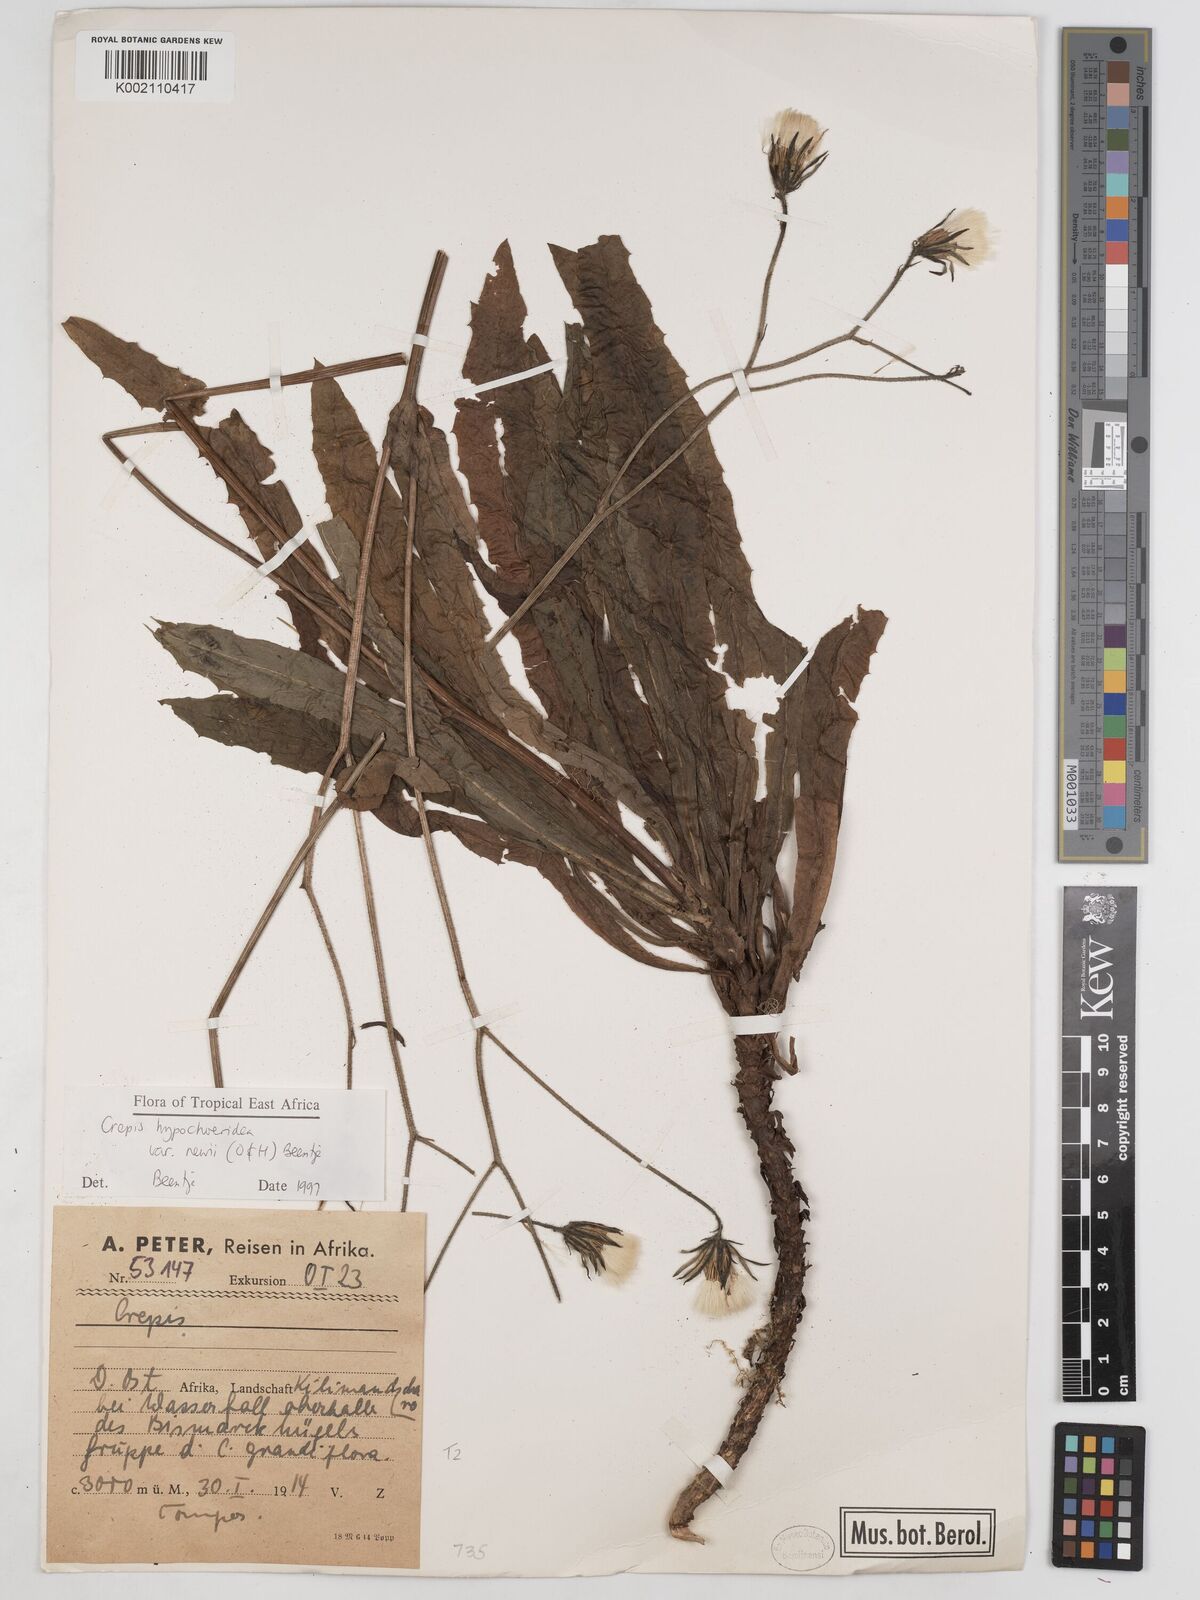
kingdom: Plantae
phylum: Tracheophyta
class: Magnoliopsida
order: Asterales
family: Asteraceae
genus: Crepis
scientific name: Crepis hypochoeridea
